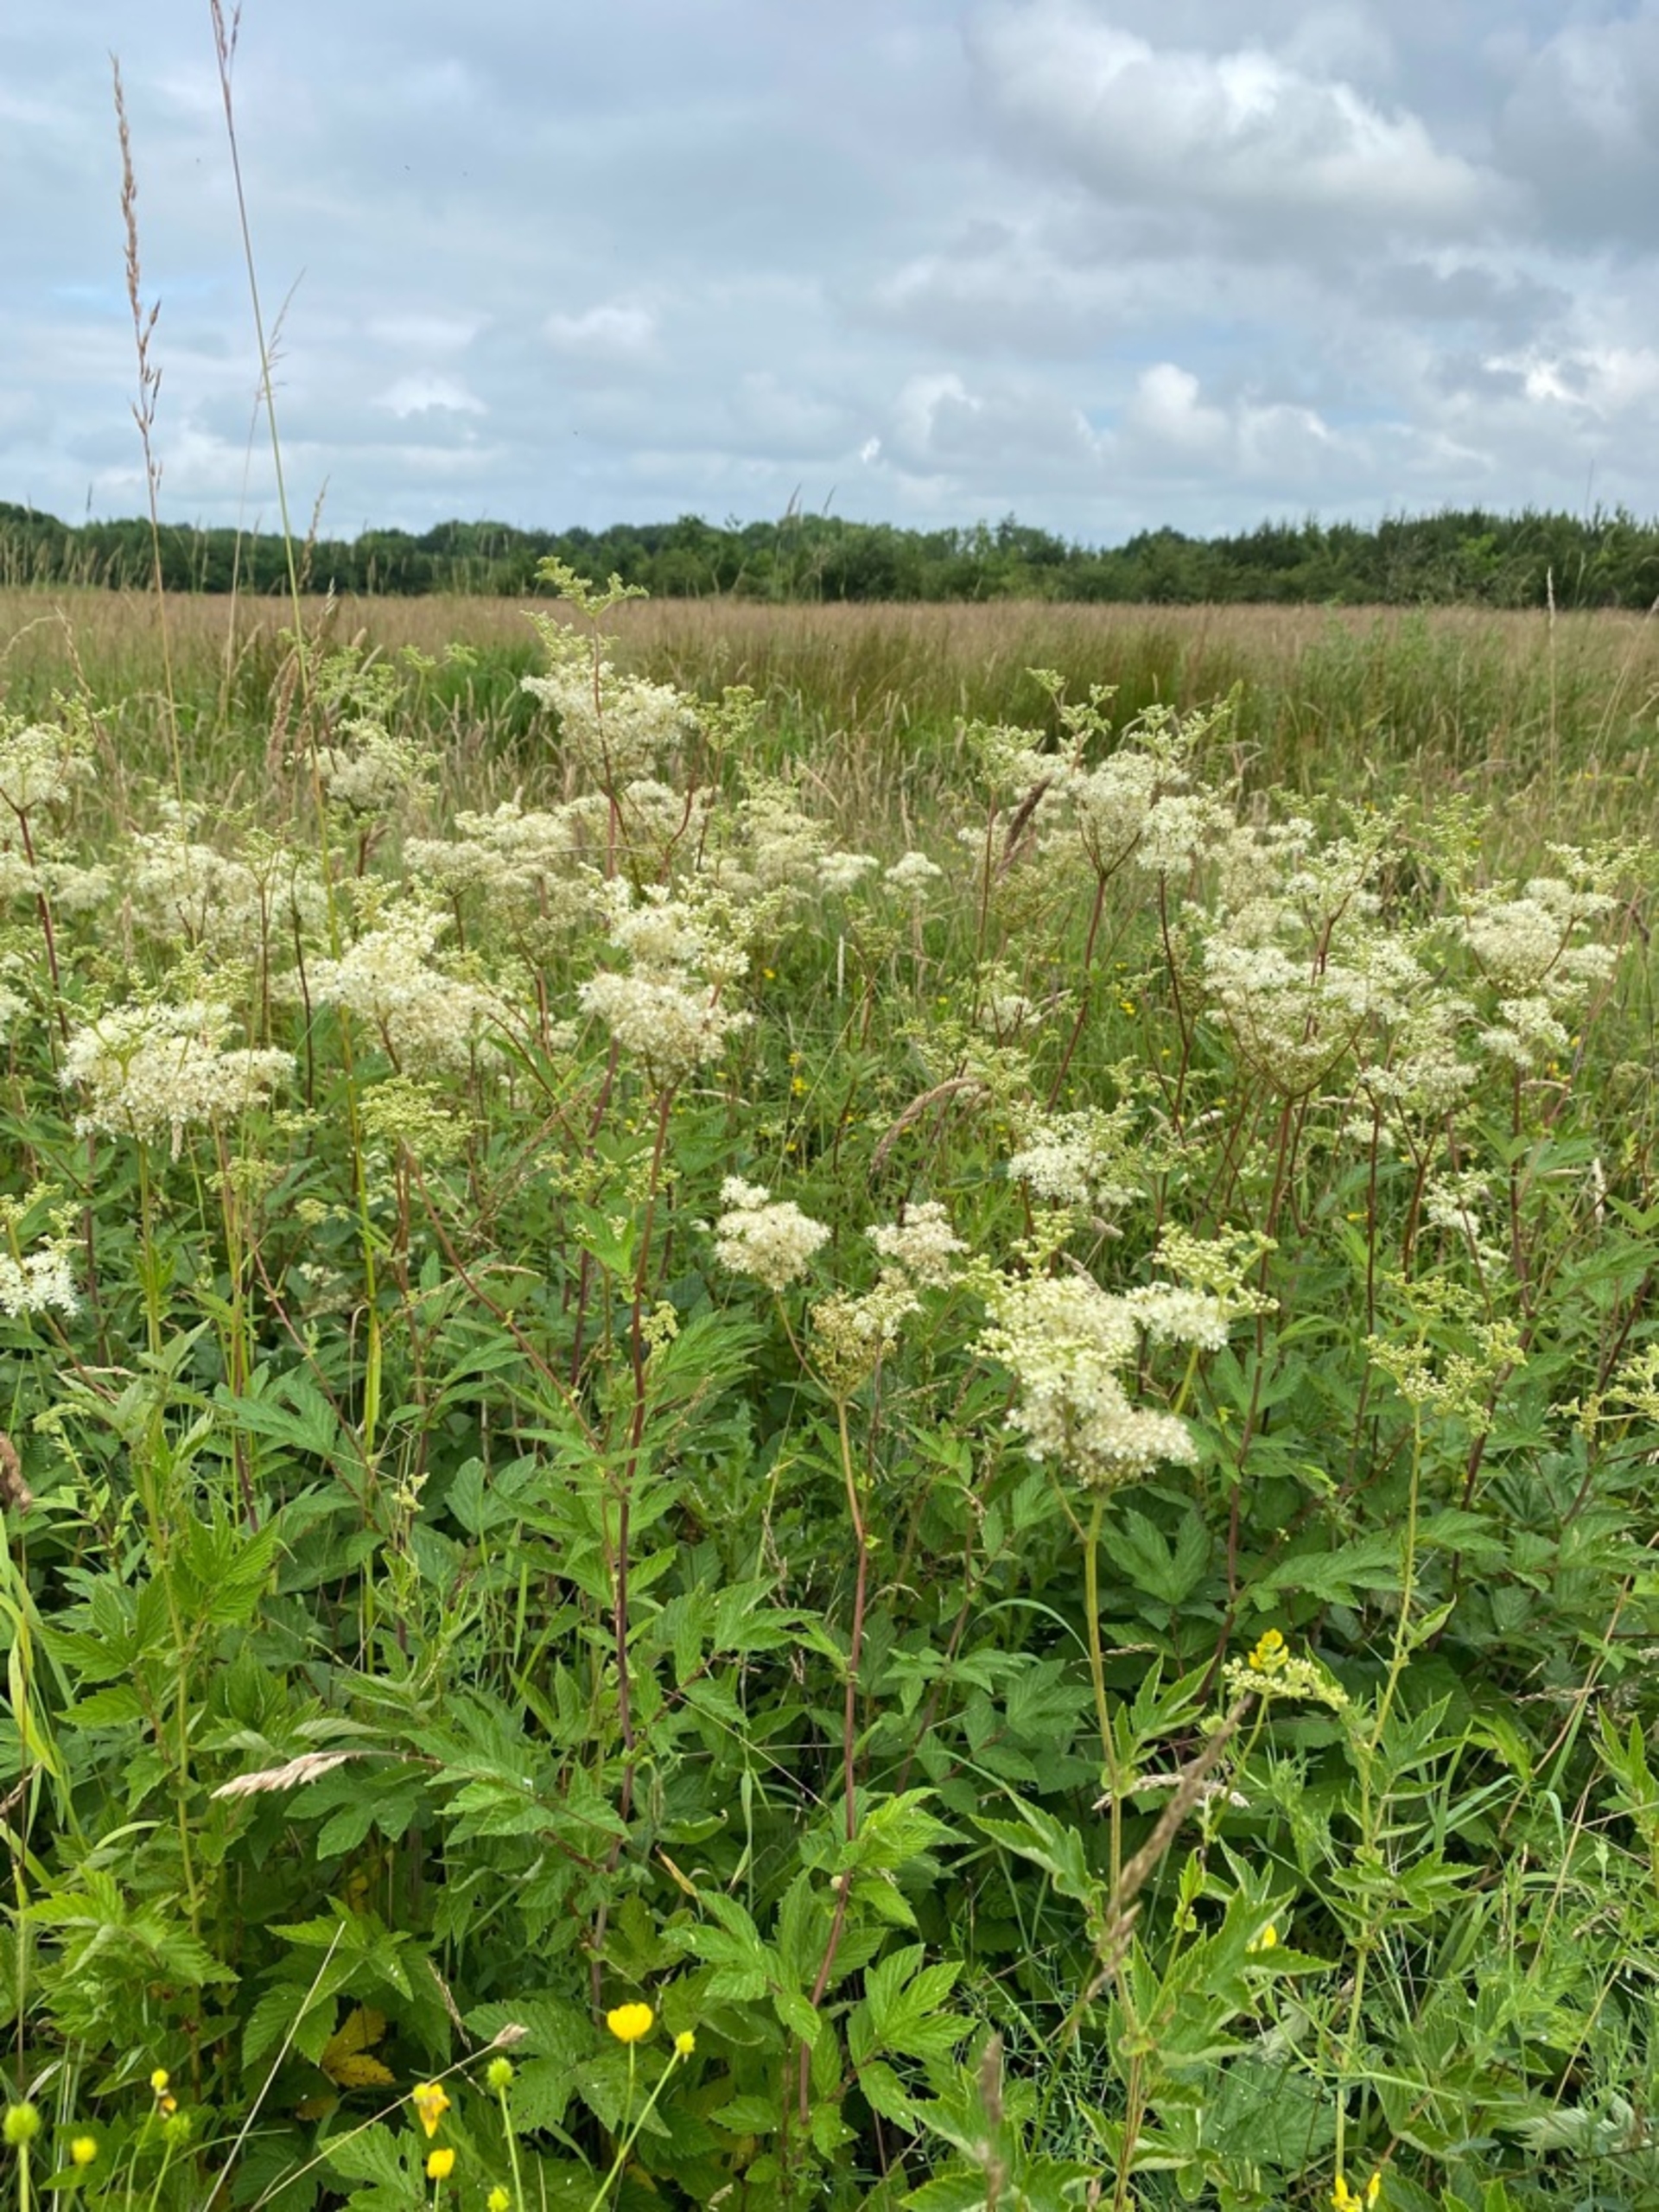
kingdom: Plantae
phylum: Tracheophyta
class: Magnoliopsida
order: Rosales
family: Rosaceae
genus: Filipendula
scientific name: Filipendula ulmaria
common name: Almindelig mjødurt
